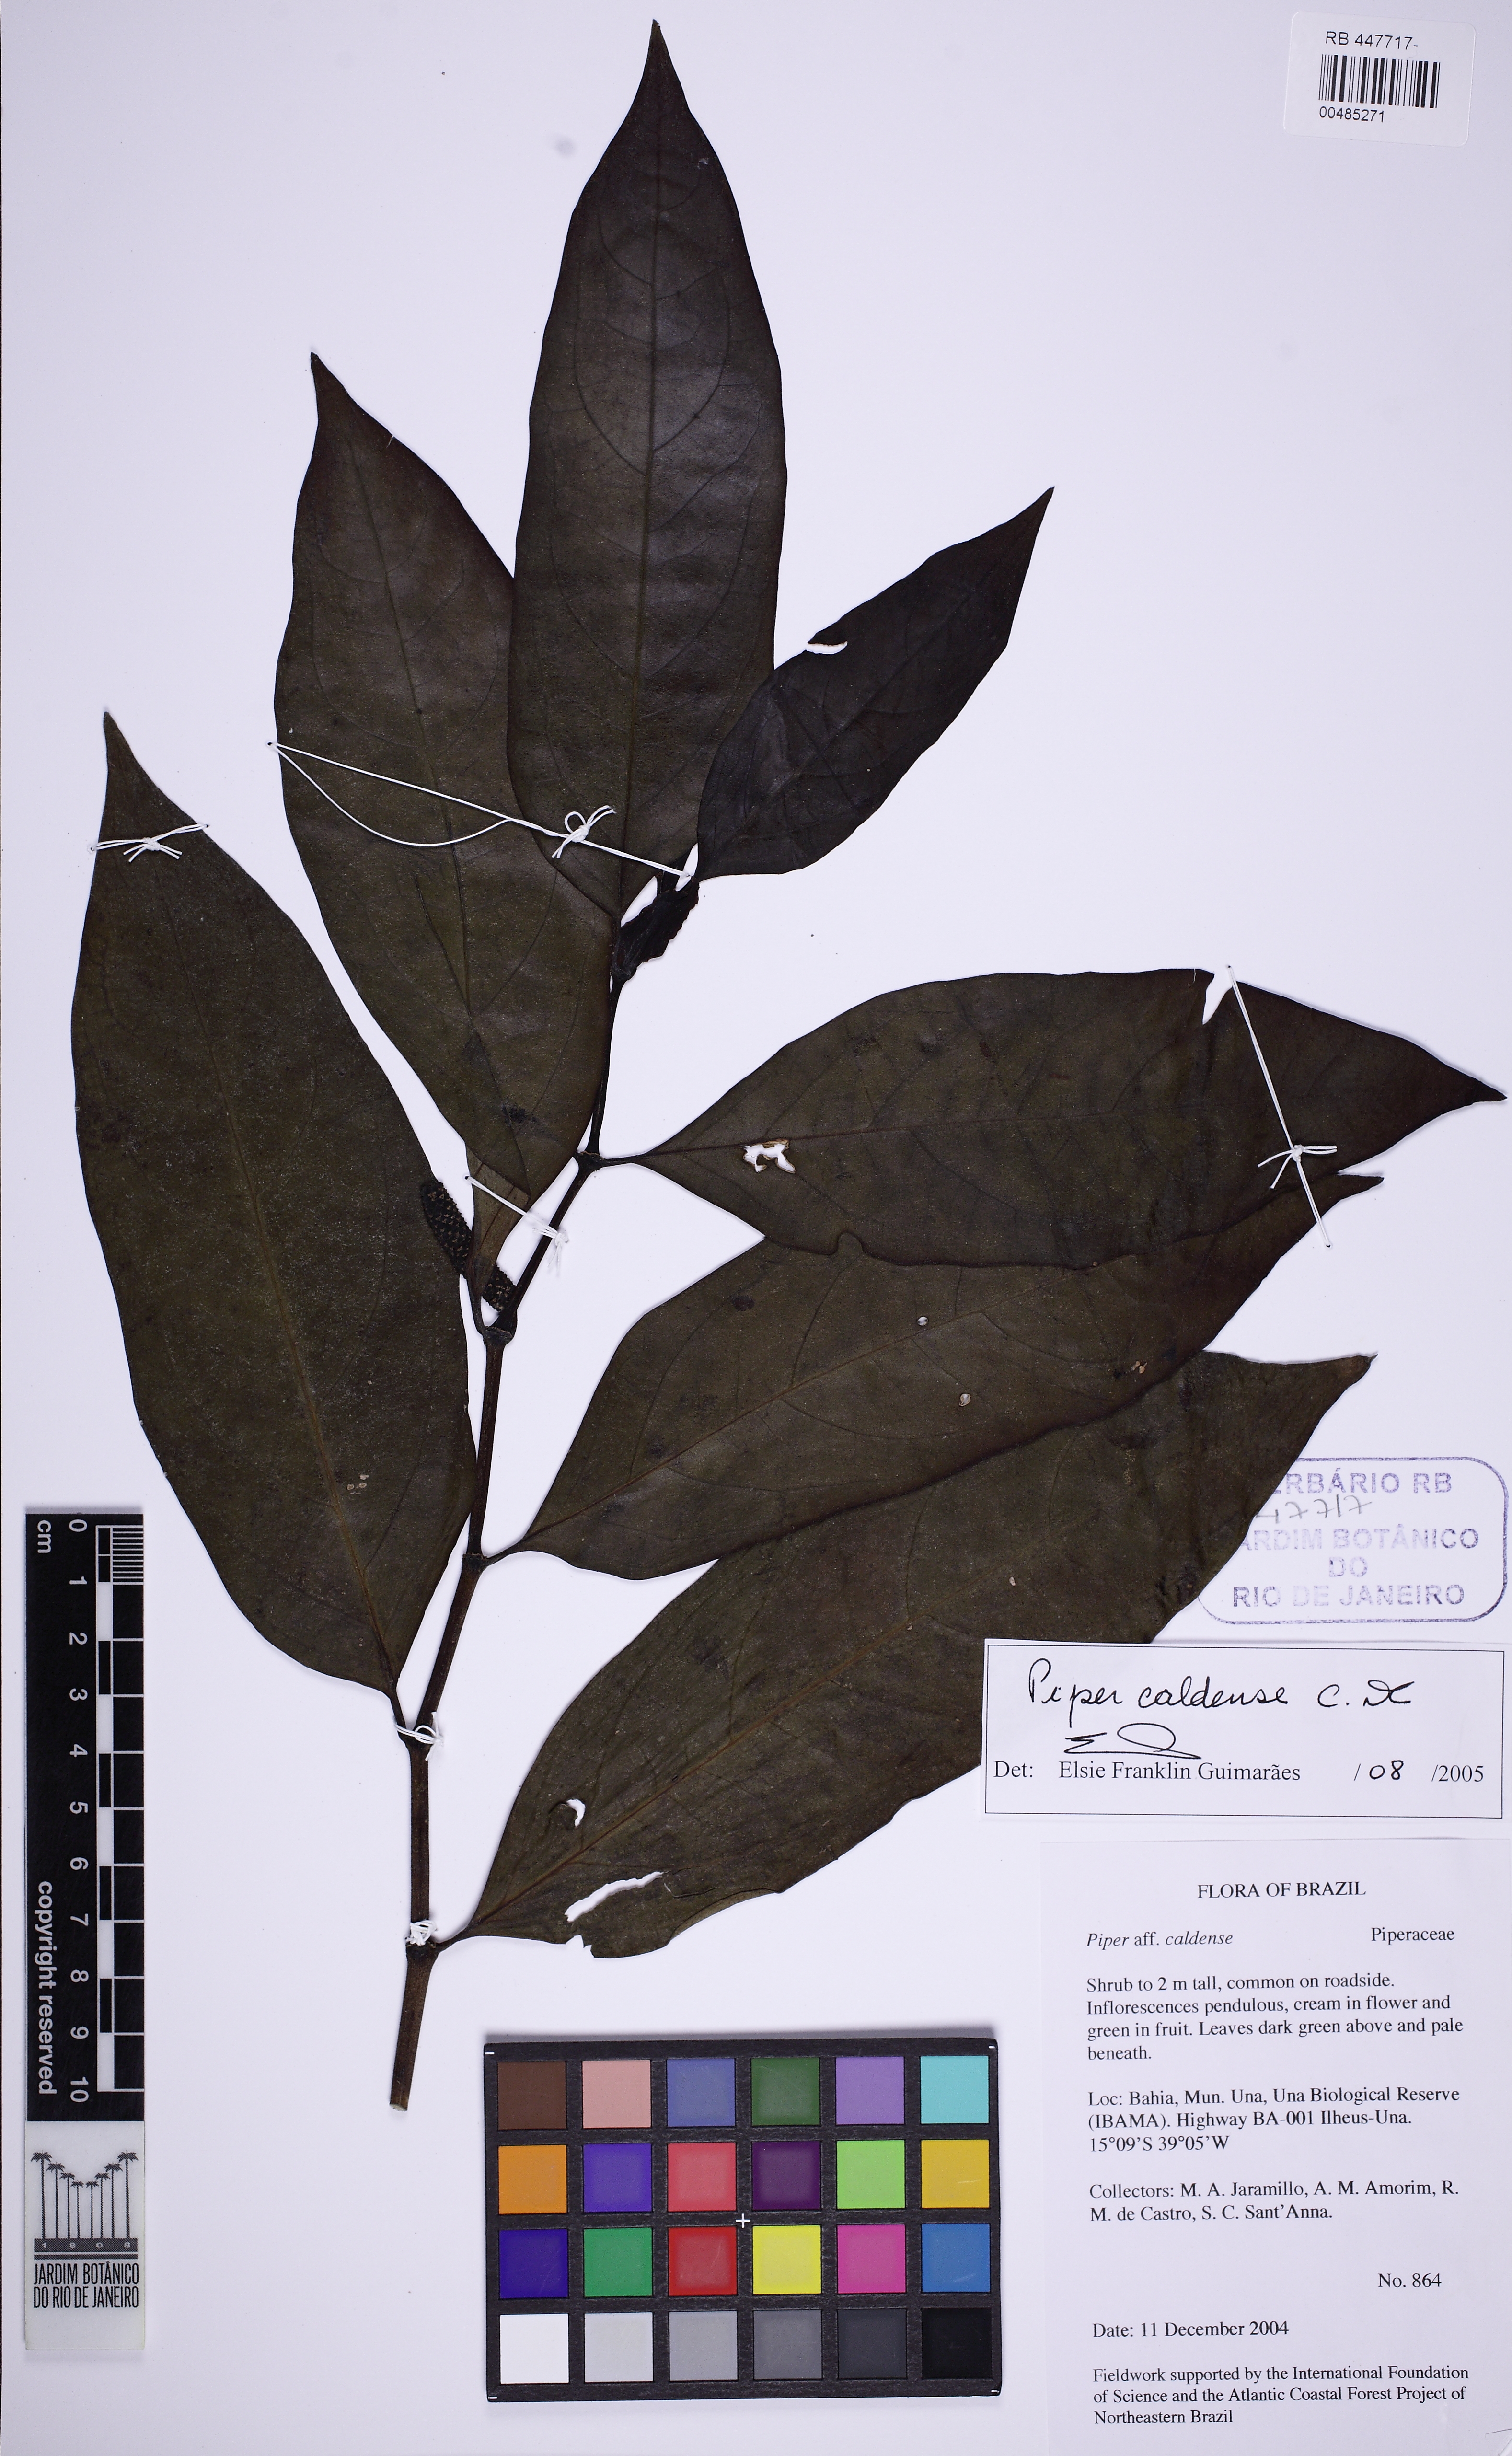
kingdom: Plantae
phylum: Tracheophyta
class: Magnoliopsida
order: Piperales
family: Piperaceae
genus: Piper
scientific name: Piper caldense
